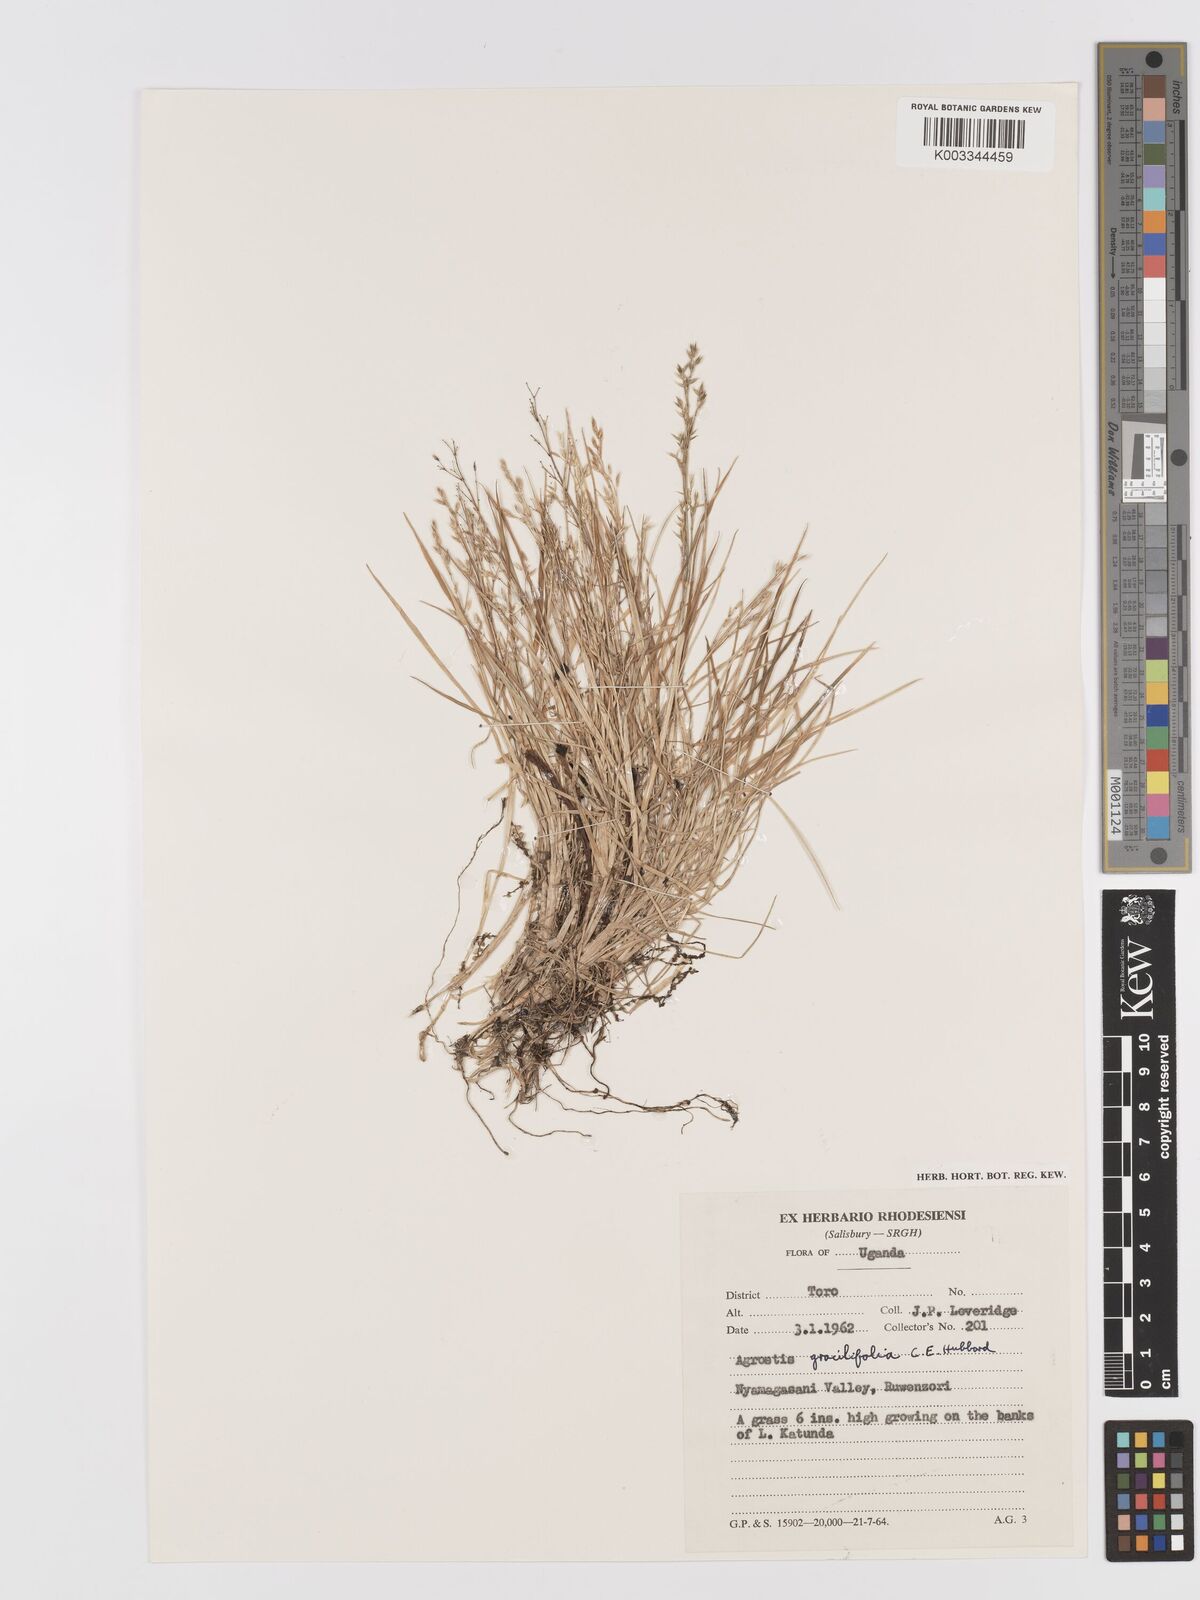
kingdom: Plantae
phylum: Tracheophyta
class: Liliopsida
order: Poales
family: Poaceae
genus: Agrostis
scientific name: Agrostis gracilifolia
